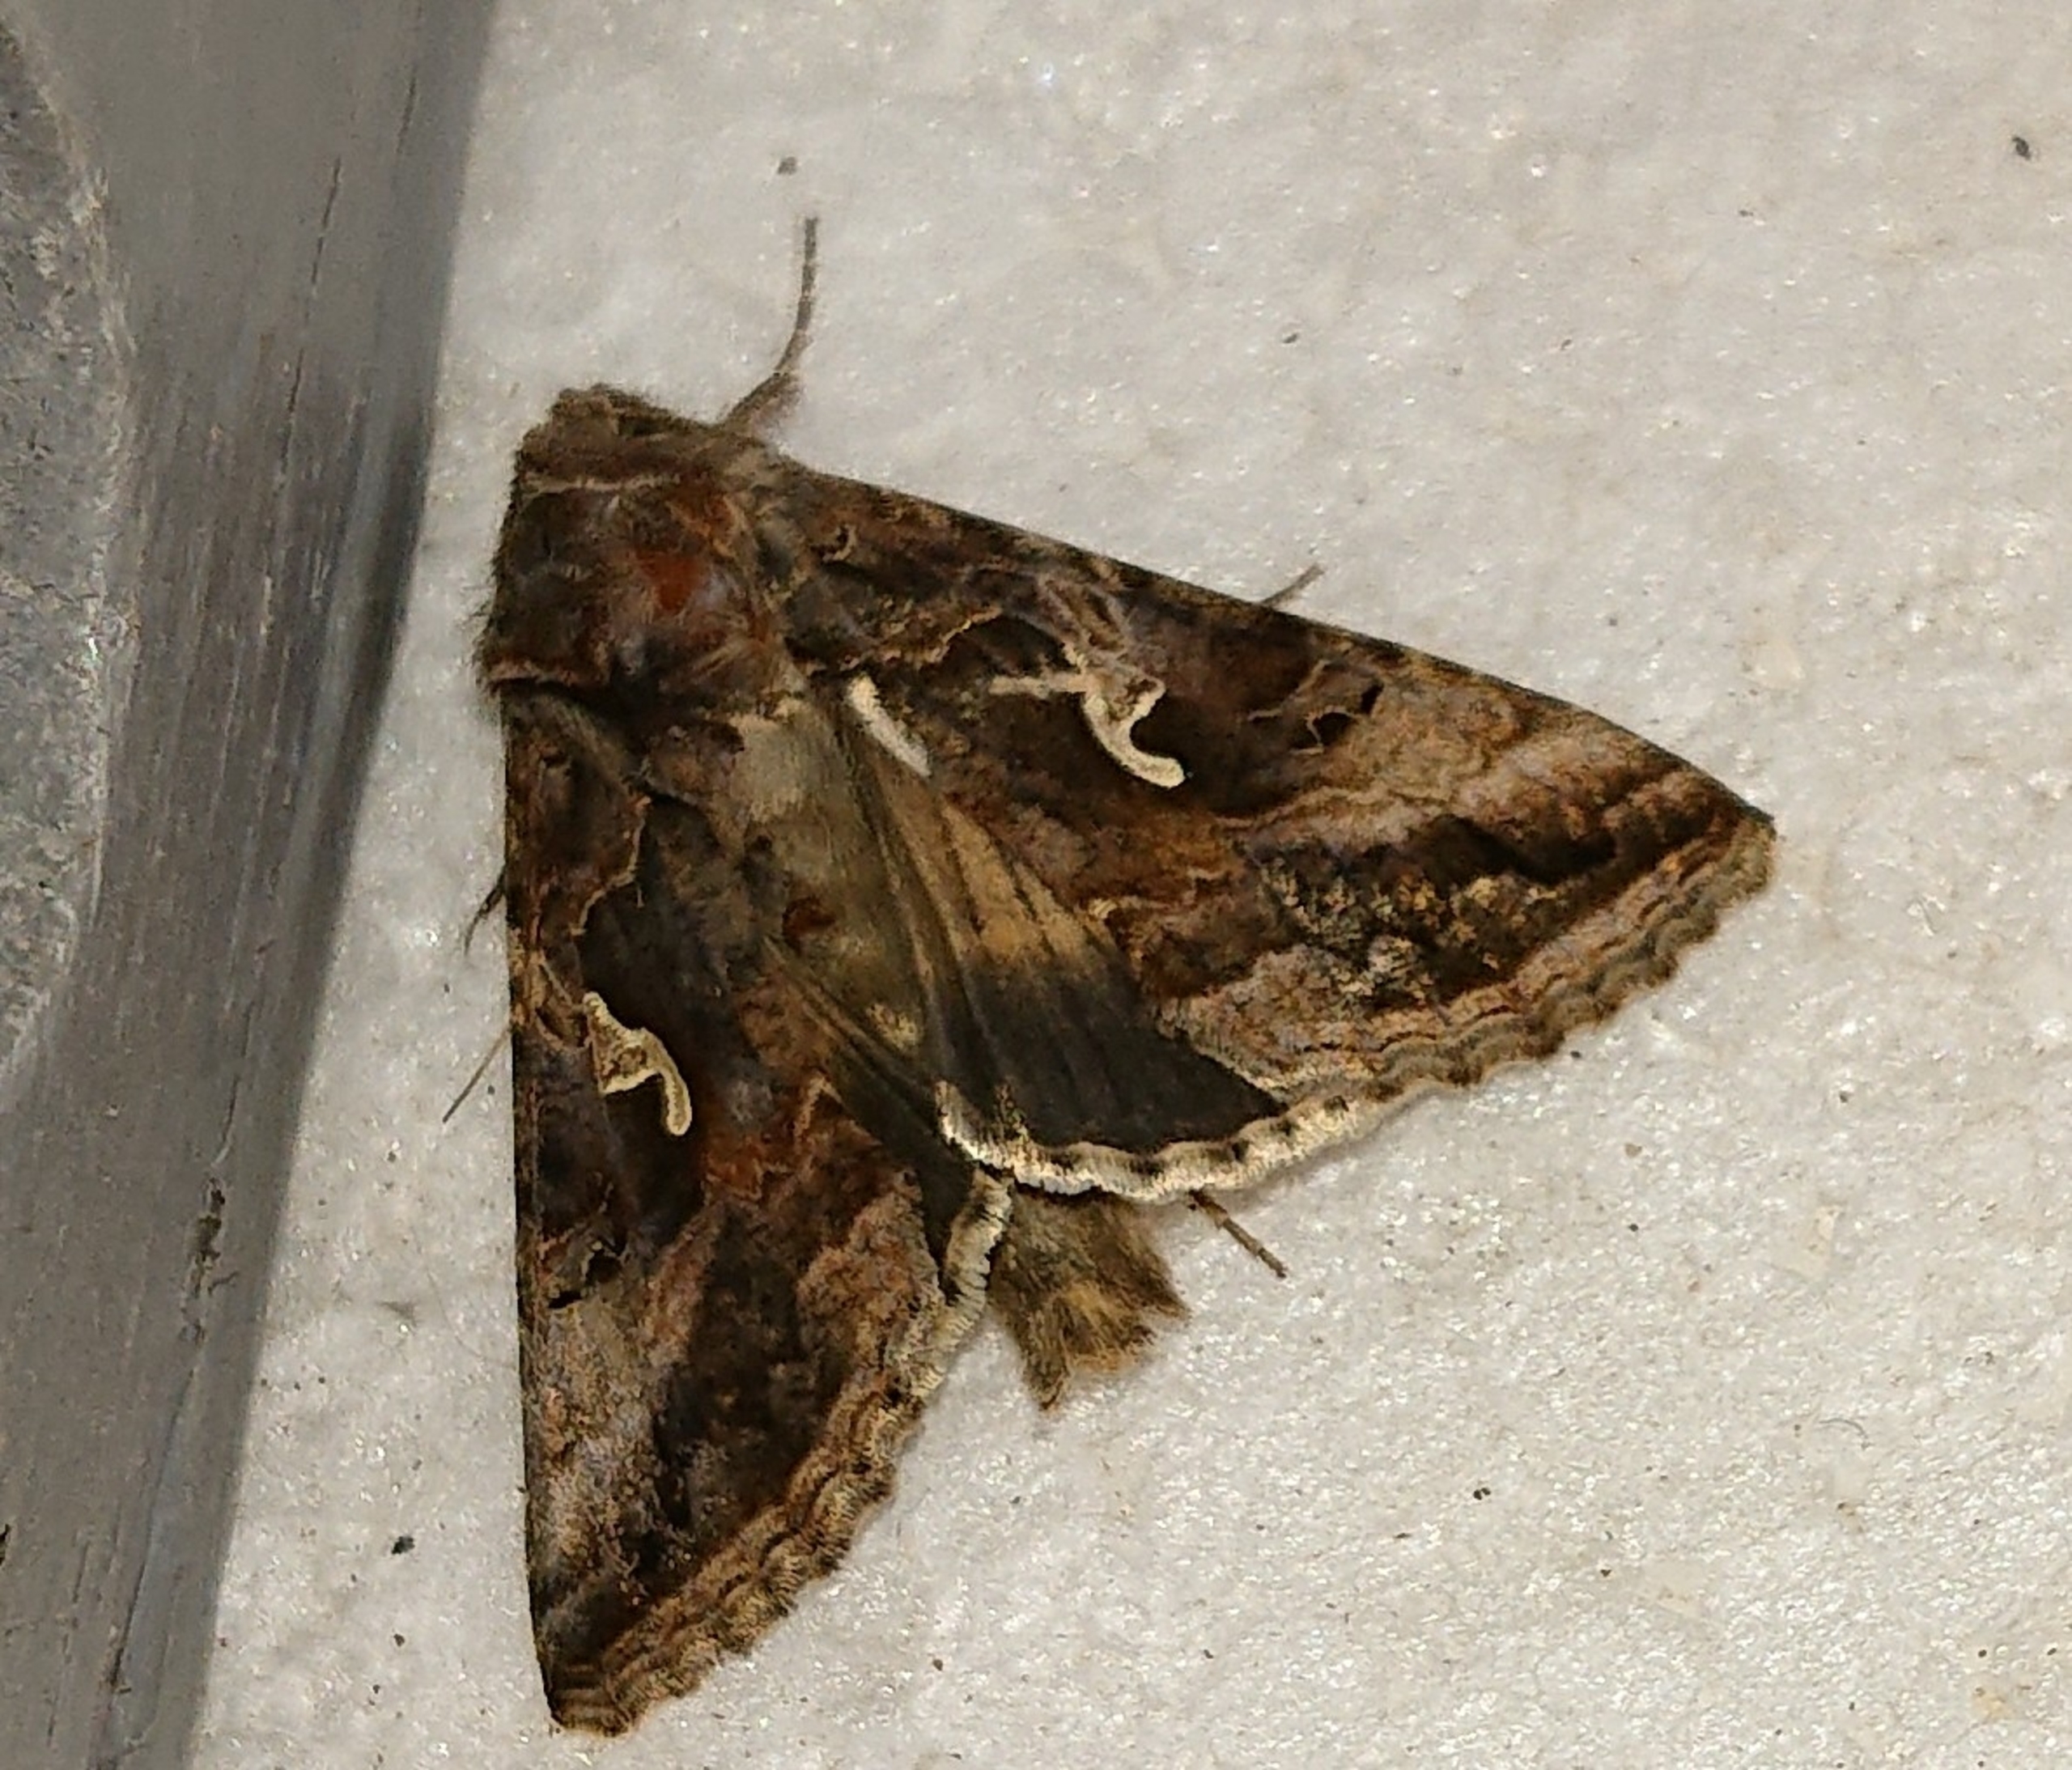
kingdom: Animalia
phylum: Arthropoda
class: Insecta
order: Lepidoptera
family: Noctuidae
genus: Autographa
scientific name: Autographa gamma
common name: Gammaugle
